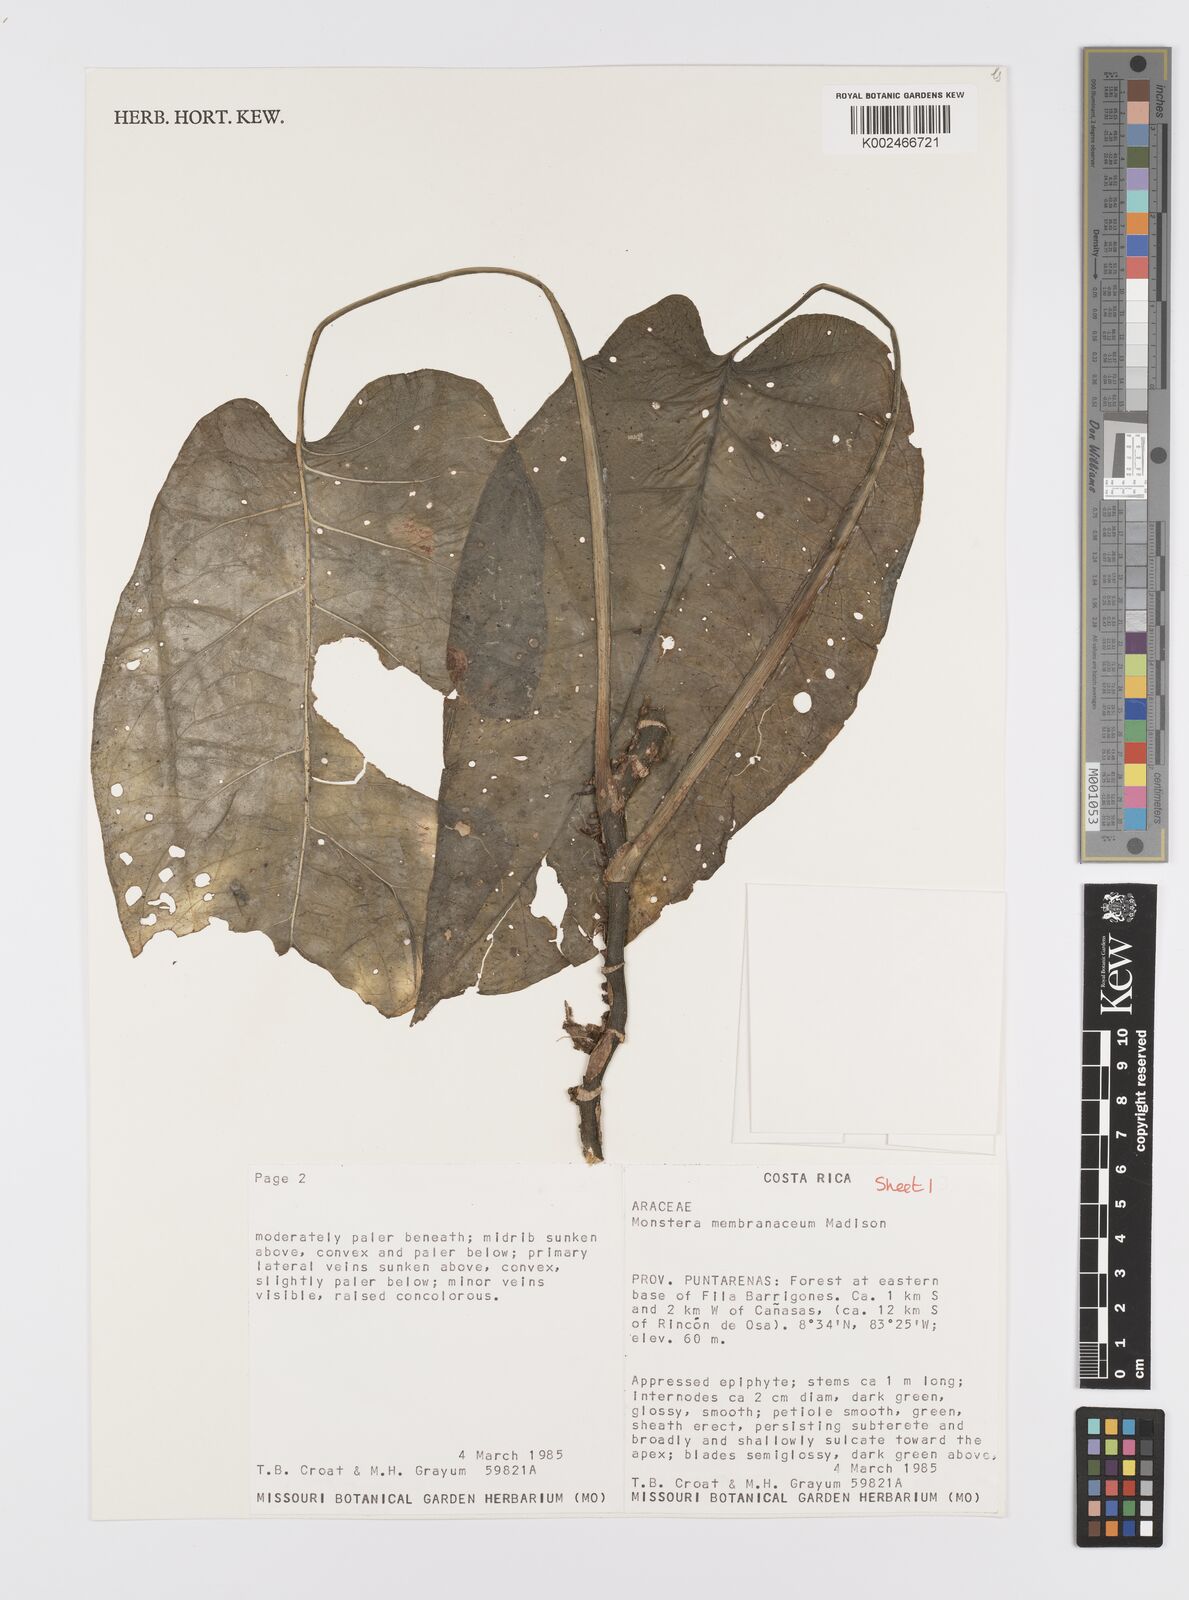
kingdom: Plantae
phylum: Tracheophyta
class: Liliopsida
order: Alismatales
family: Araceae
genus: Monstera
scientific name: Monstera membranacea
